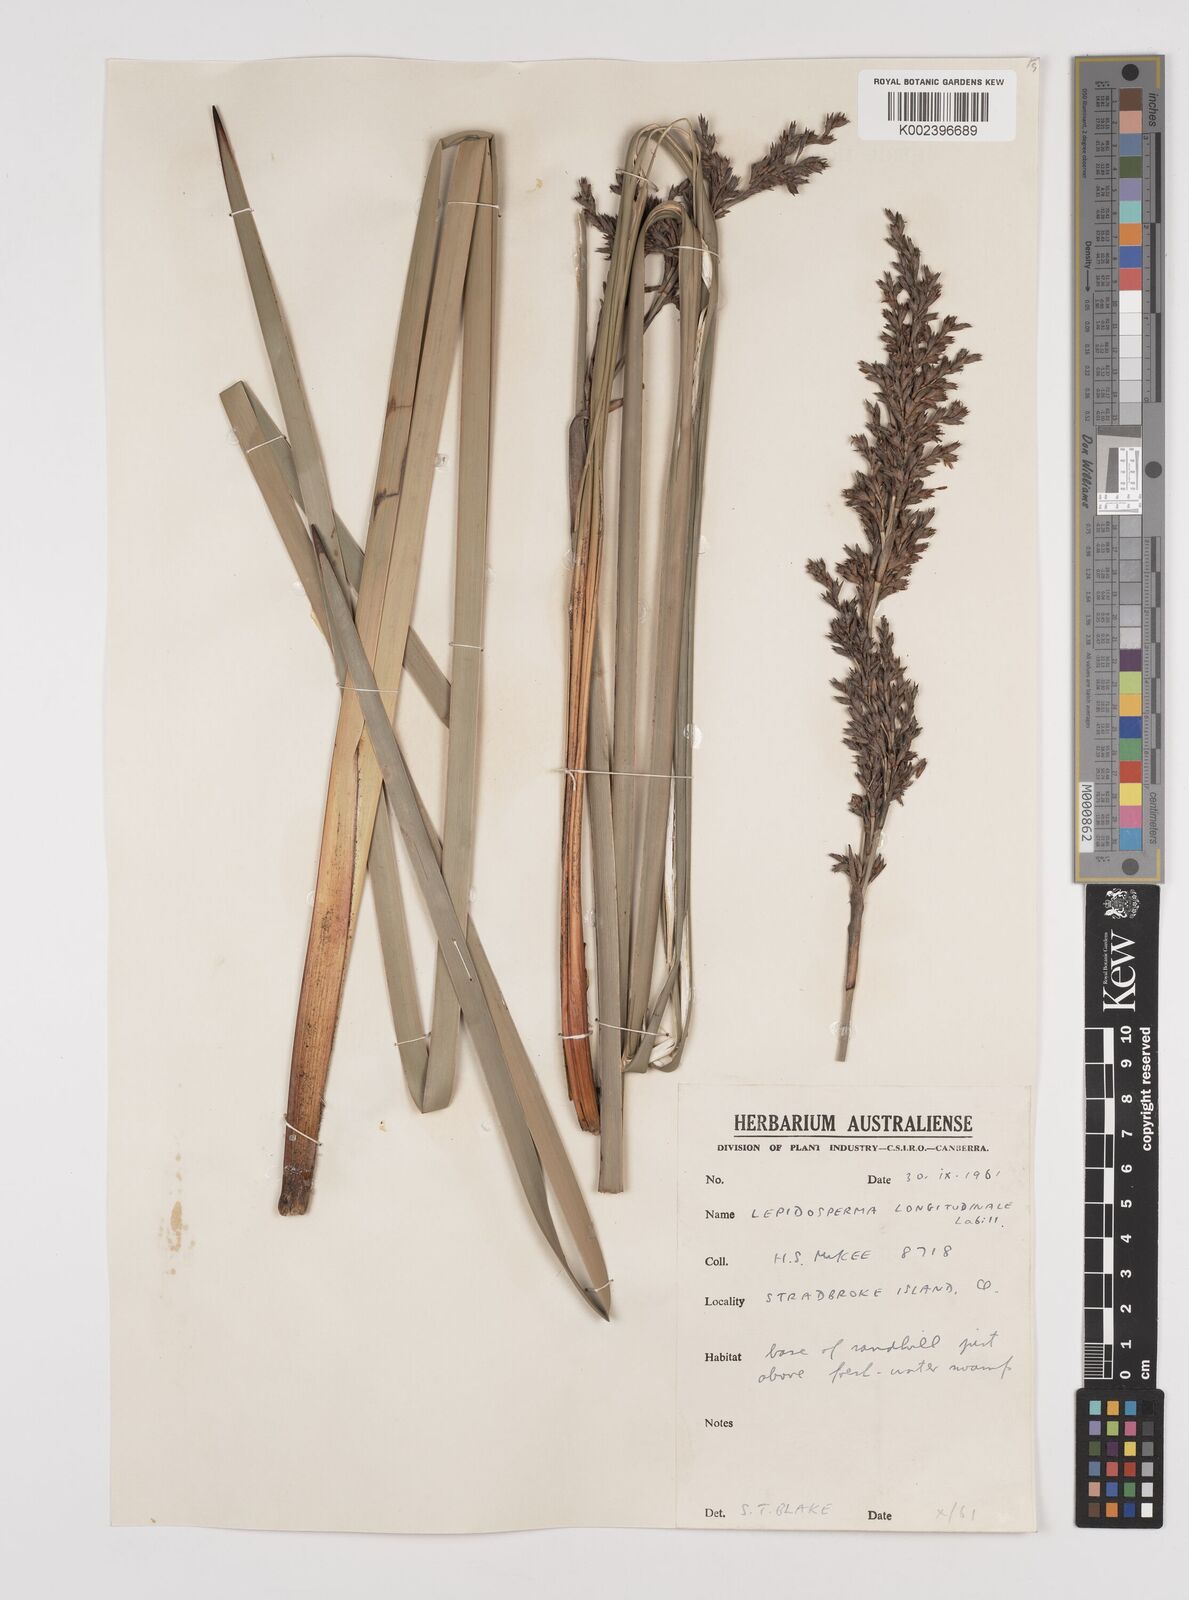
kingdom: Plantae
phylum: Tracheophyta
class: Liliopsida
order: Poales
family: Cyperaceae
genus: Lepidosperma
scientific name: Lepidosperma longitudinale
